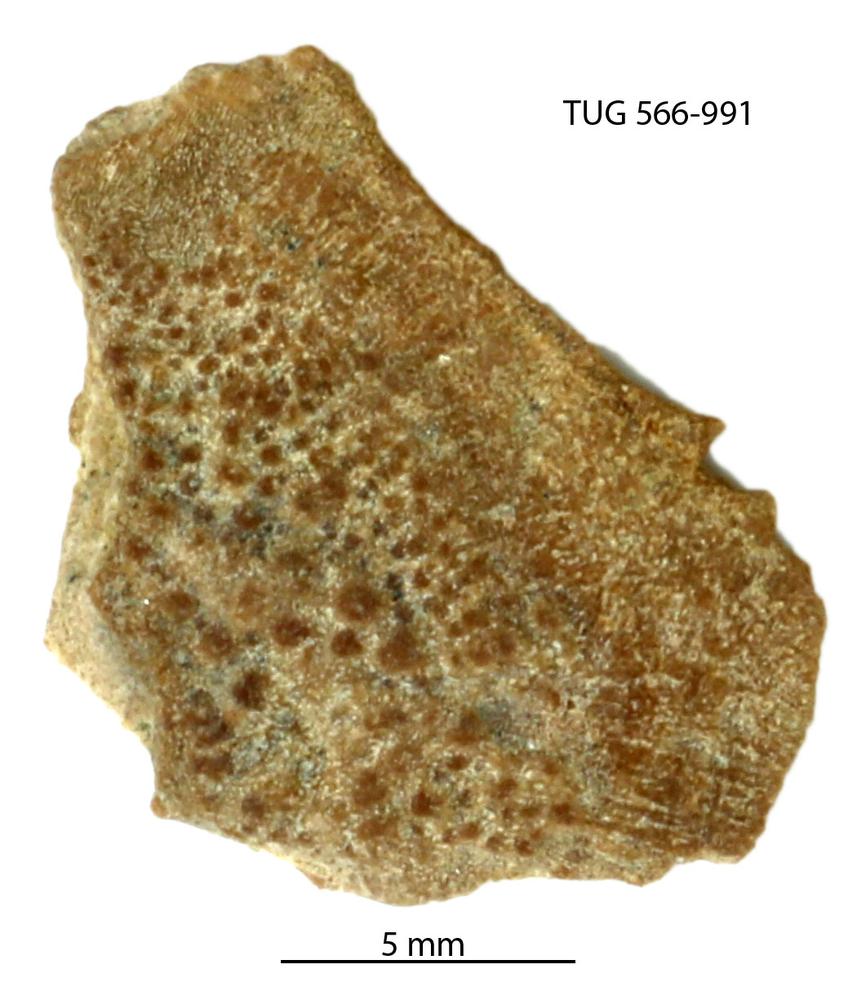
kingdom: Animalia
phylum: Chordata
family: Holoptychiidae
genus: Glyptolepis
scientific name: Glyptolepis
